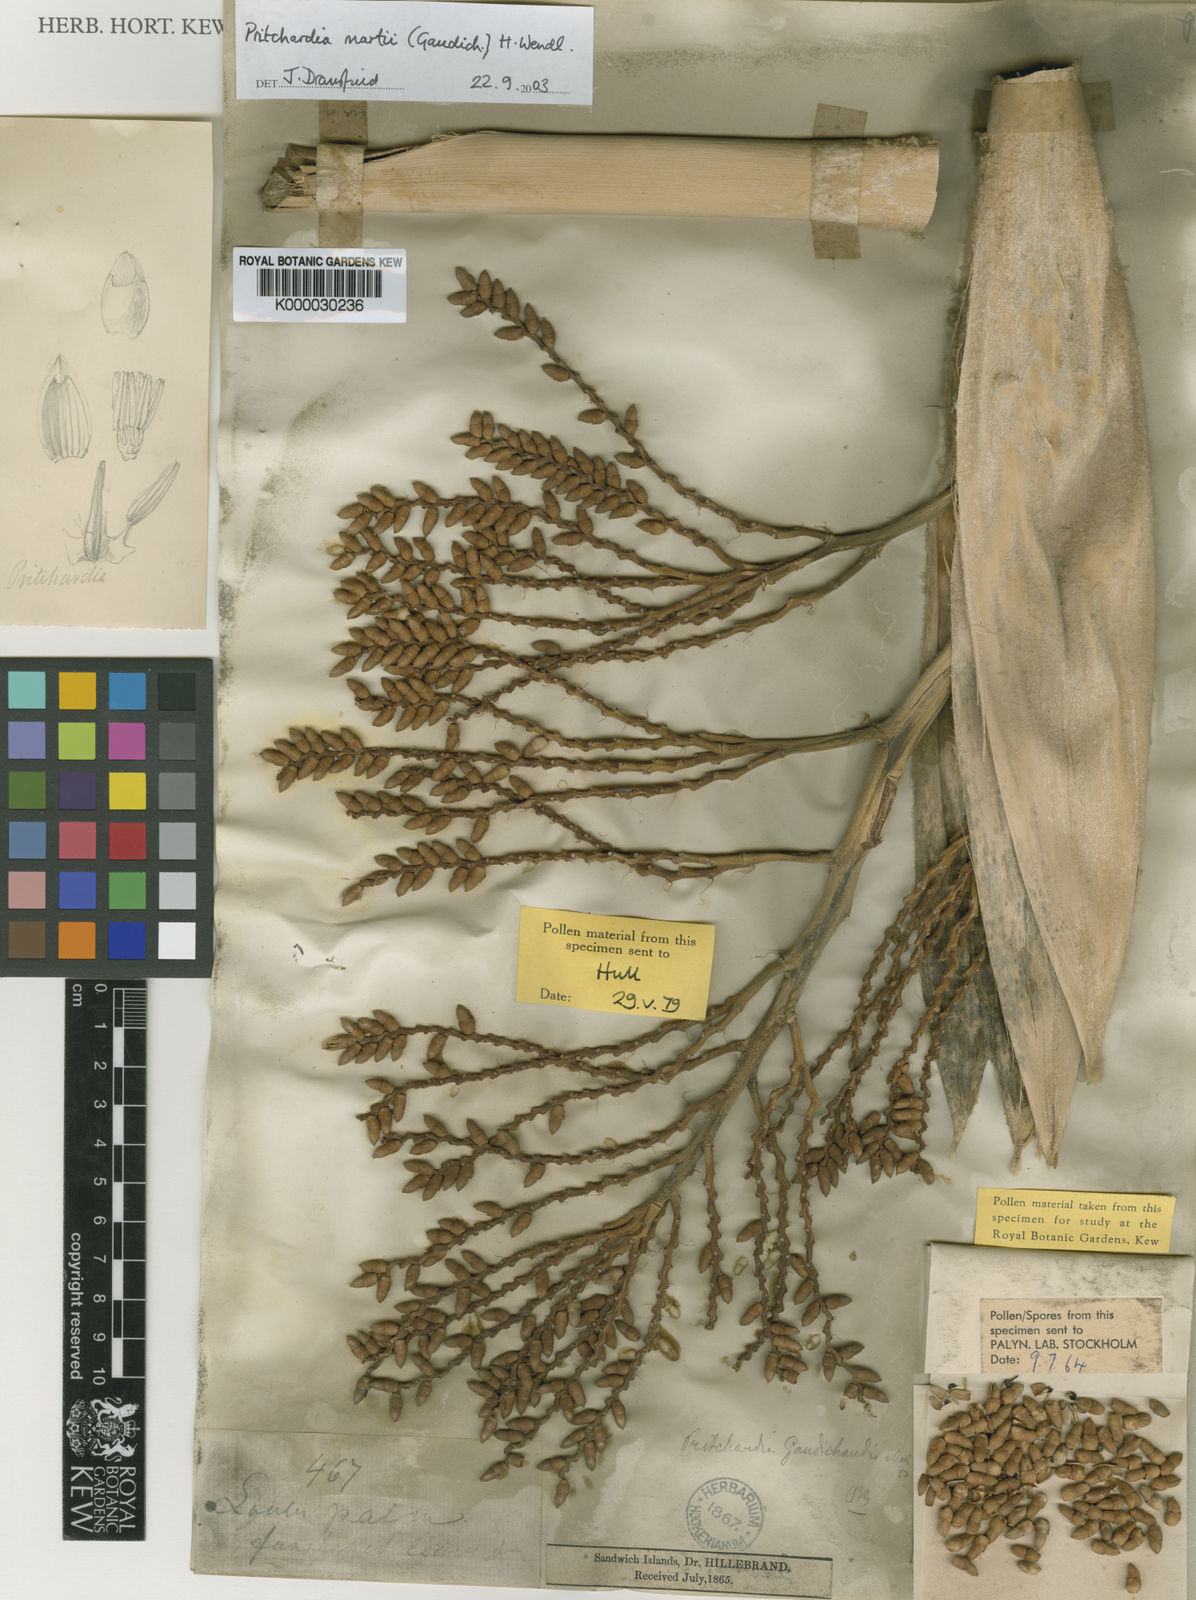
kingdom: Plantae
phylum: Tracheophyta
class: Liliopsida
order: Arecales
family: Arecaceae
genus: Pritchardia
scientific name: Pritchardia martii
